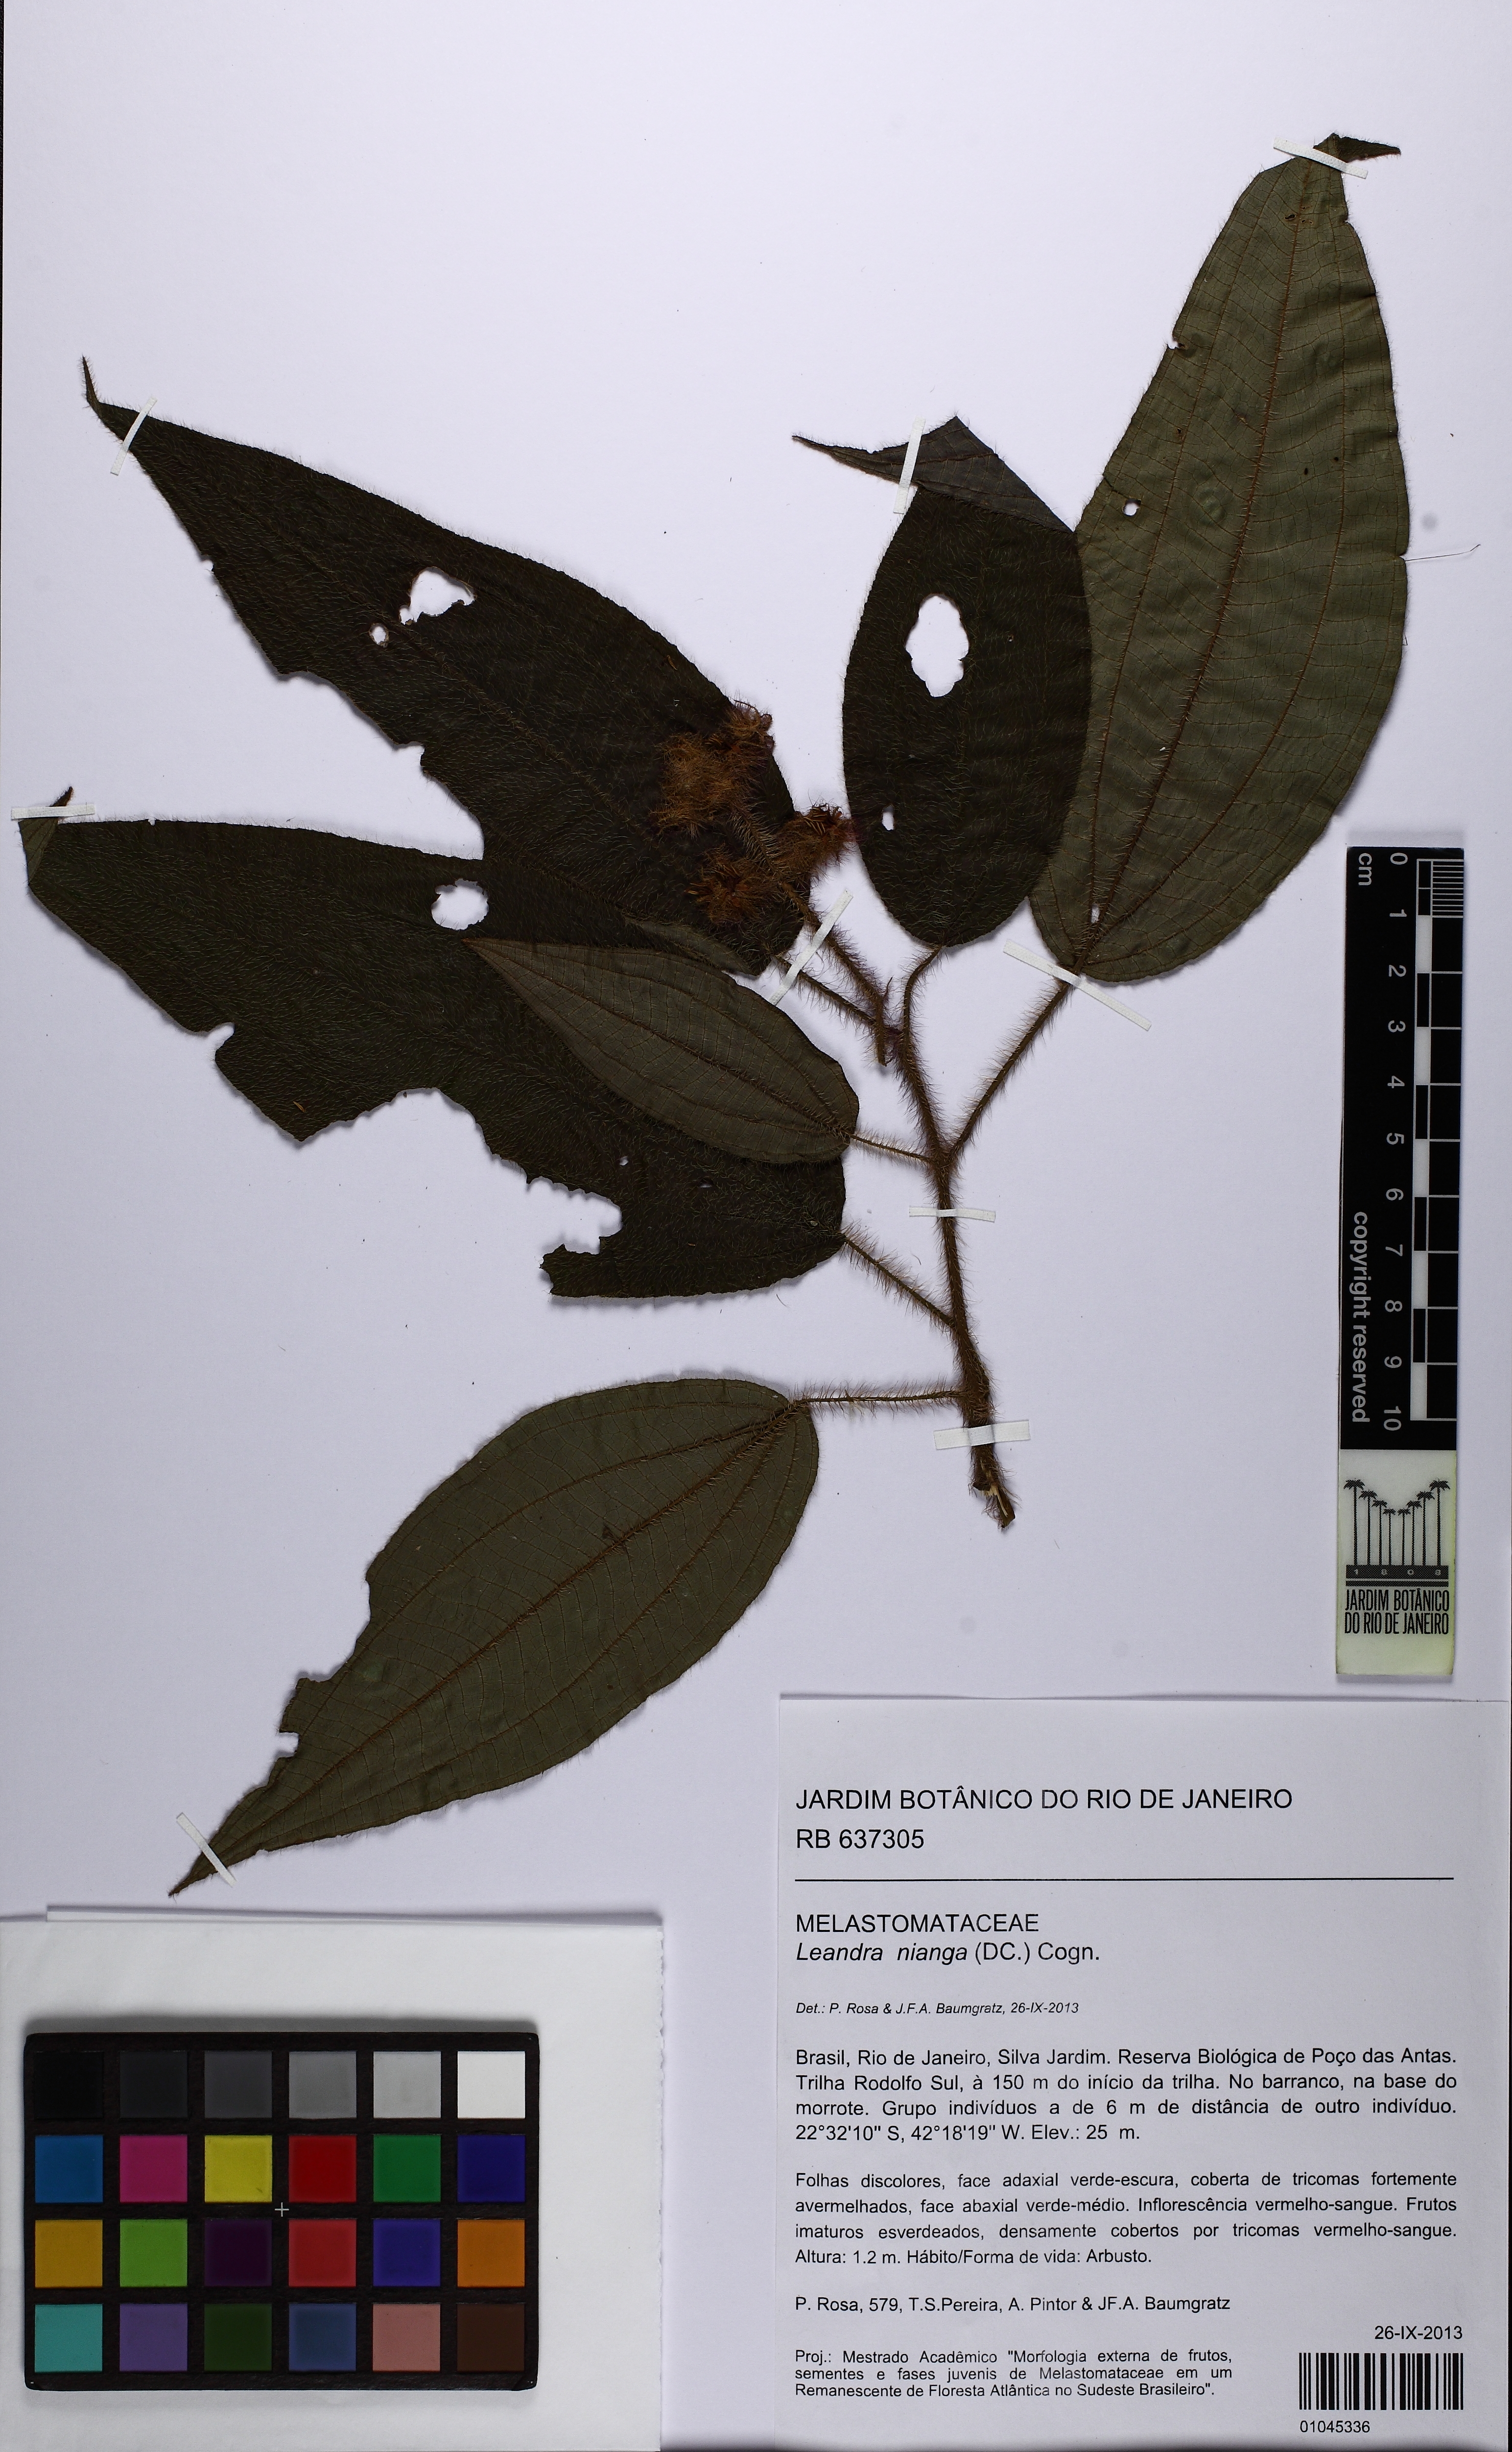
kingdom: Plantae
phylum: Tracheophyta
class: Magnoliopsida
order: Myrtales
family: Melastomataceae
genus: Miconia
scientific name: Miconia nianga
